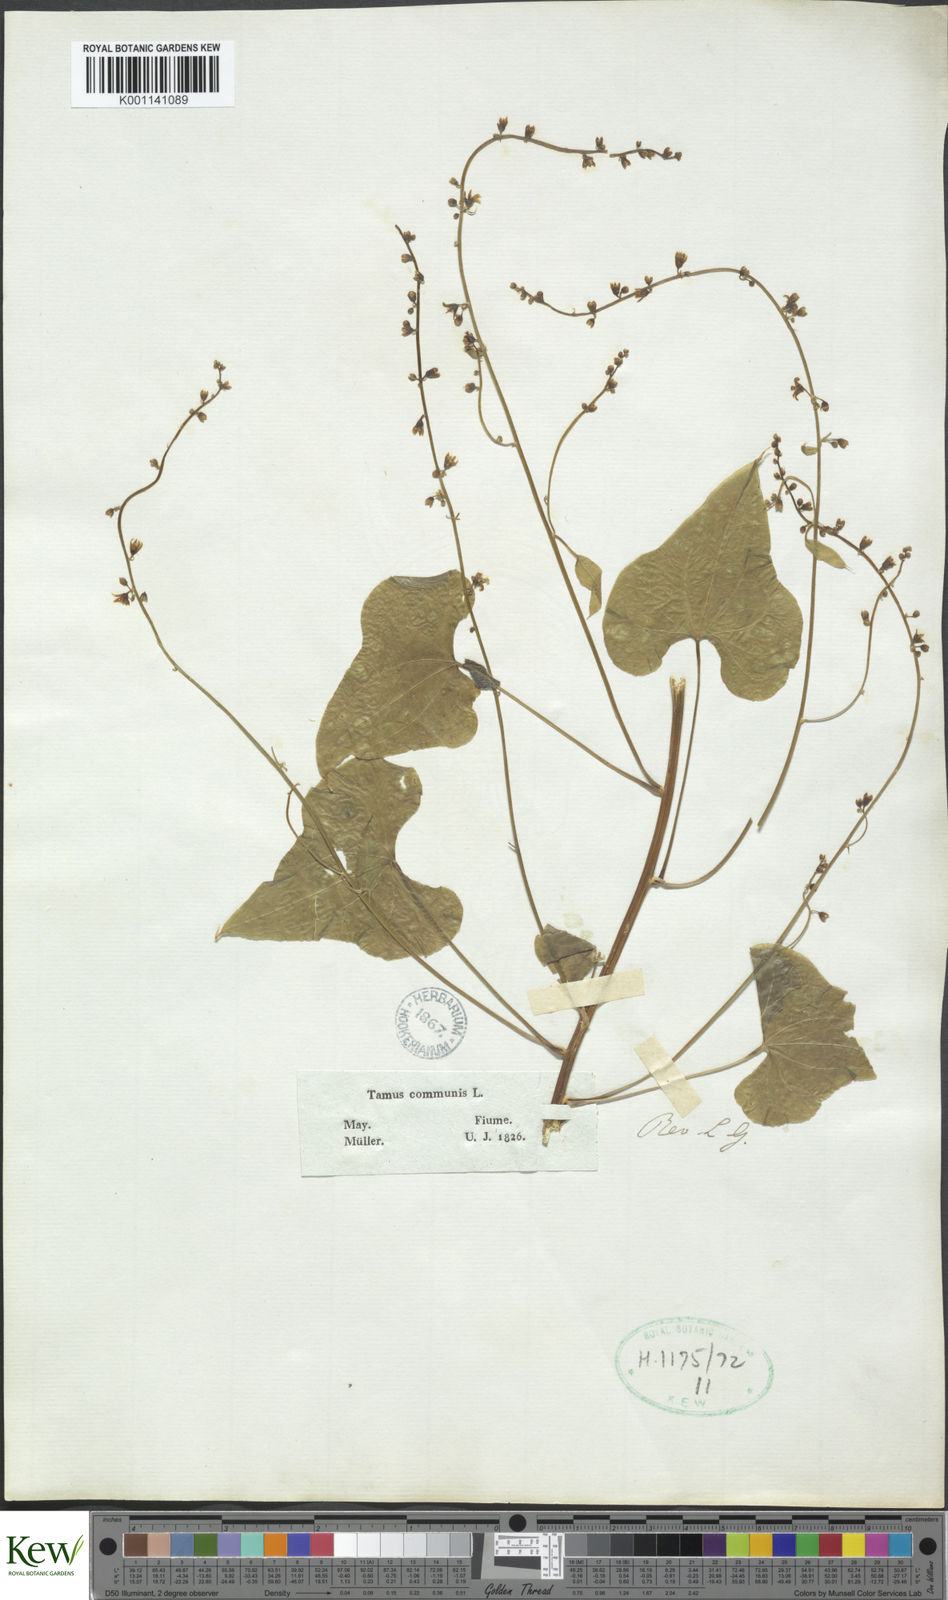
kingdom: Plantae
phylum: Tracheophyta
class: Liliopsida
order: Dioscoreales
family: Dioscoreaceae
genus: Dioscorea
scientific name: Dioscorea communis
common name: Black-bindweed
